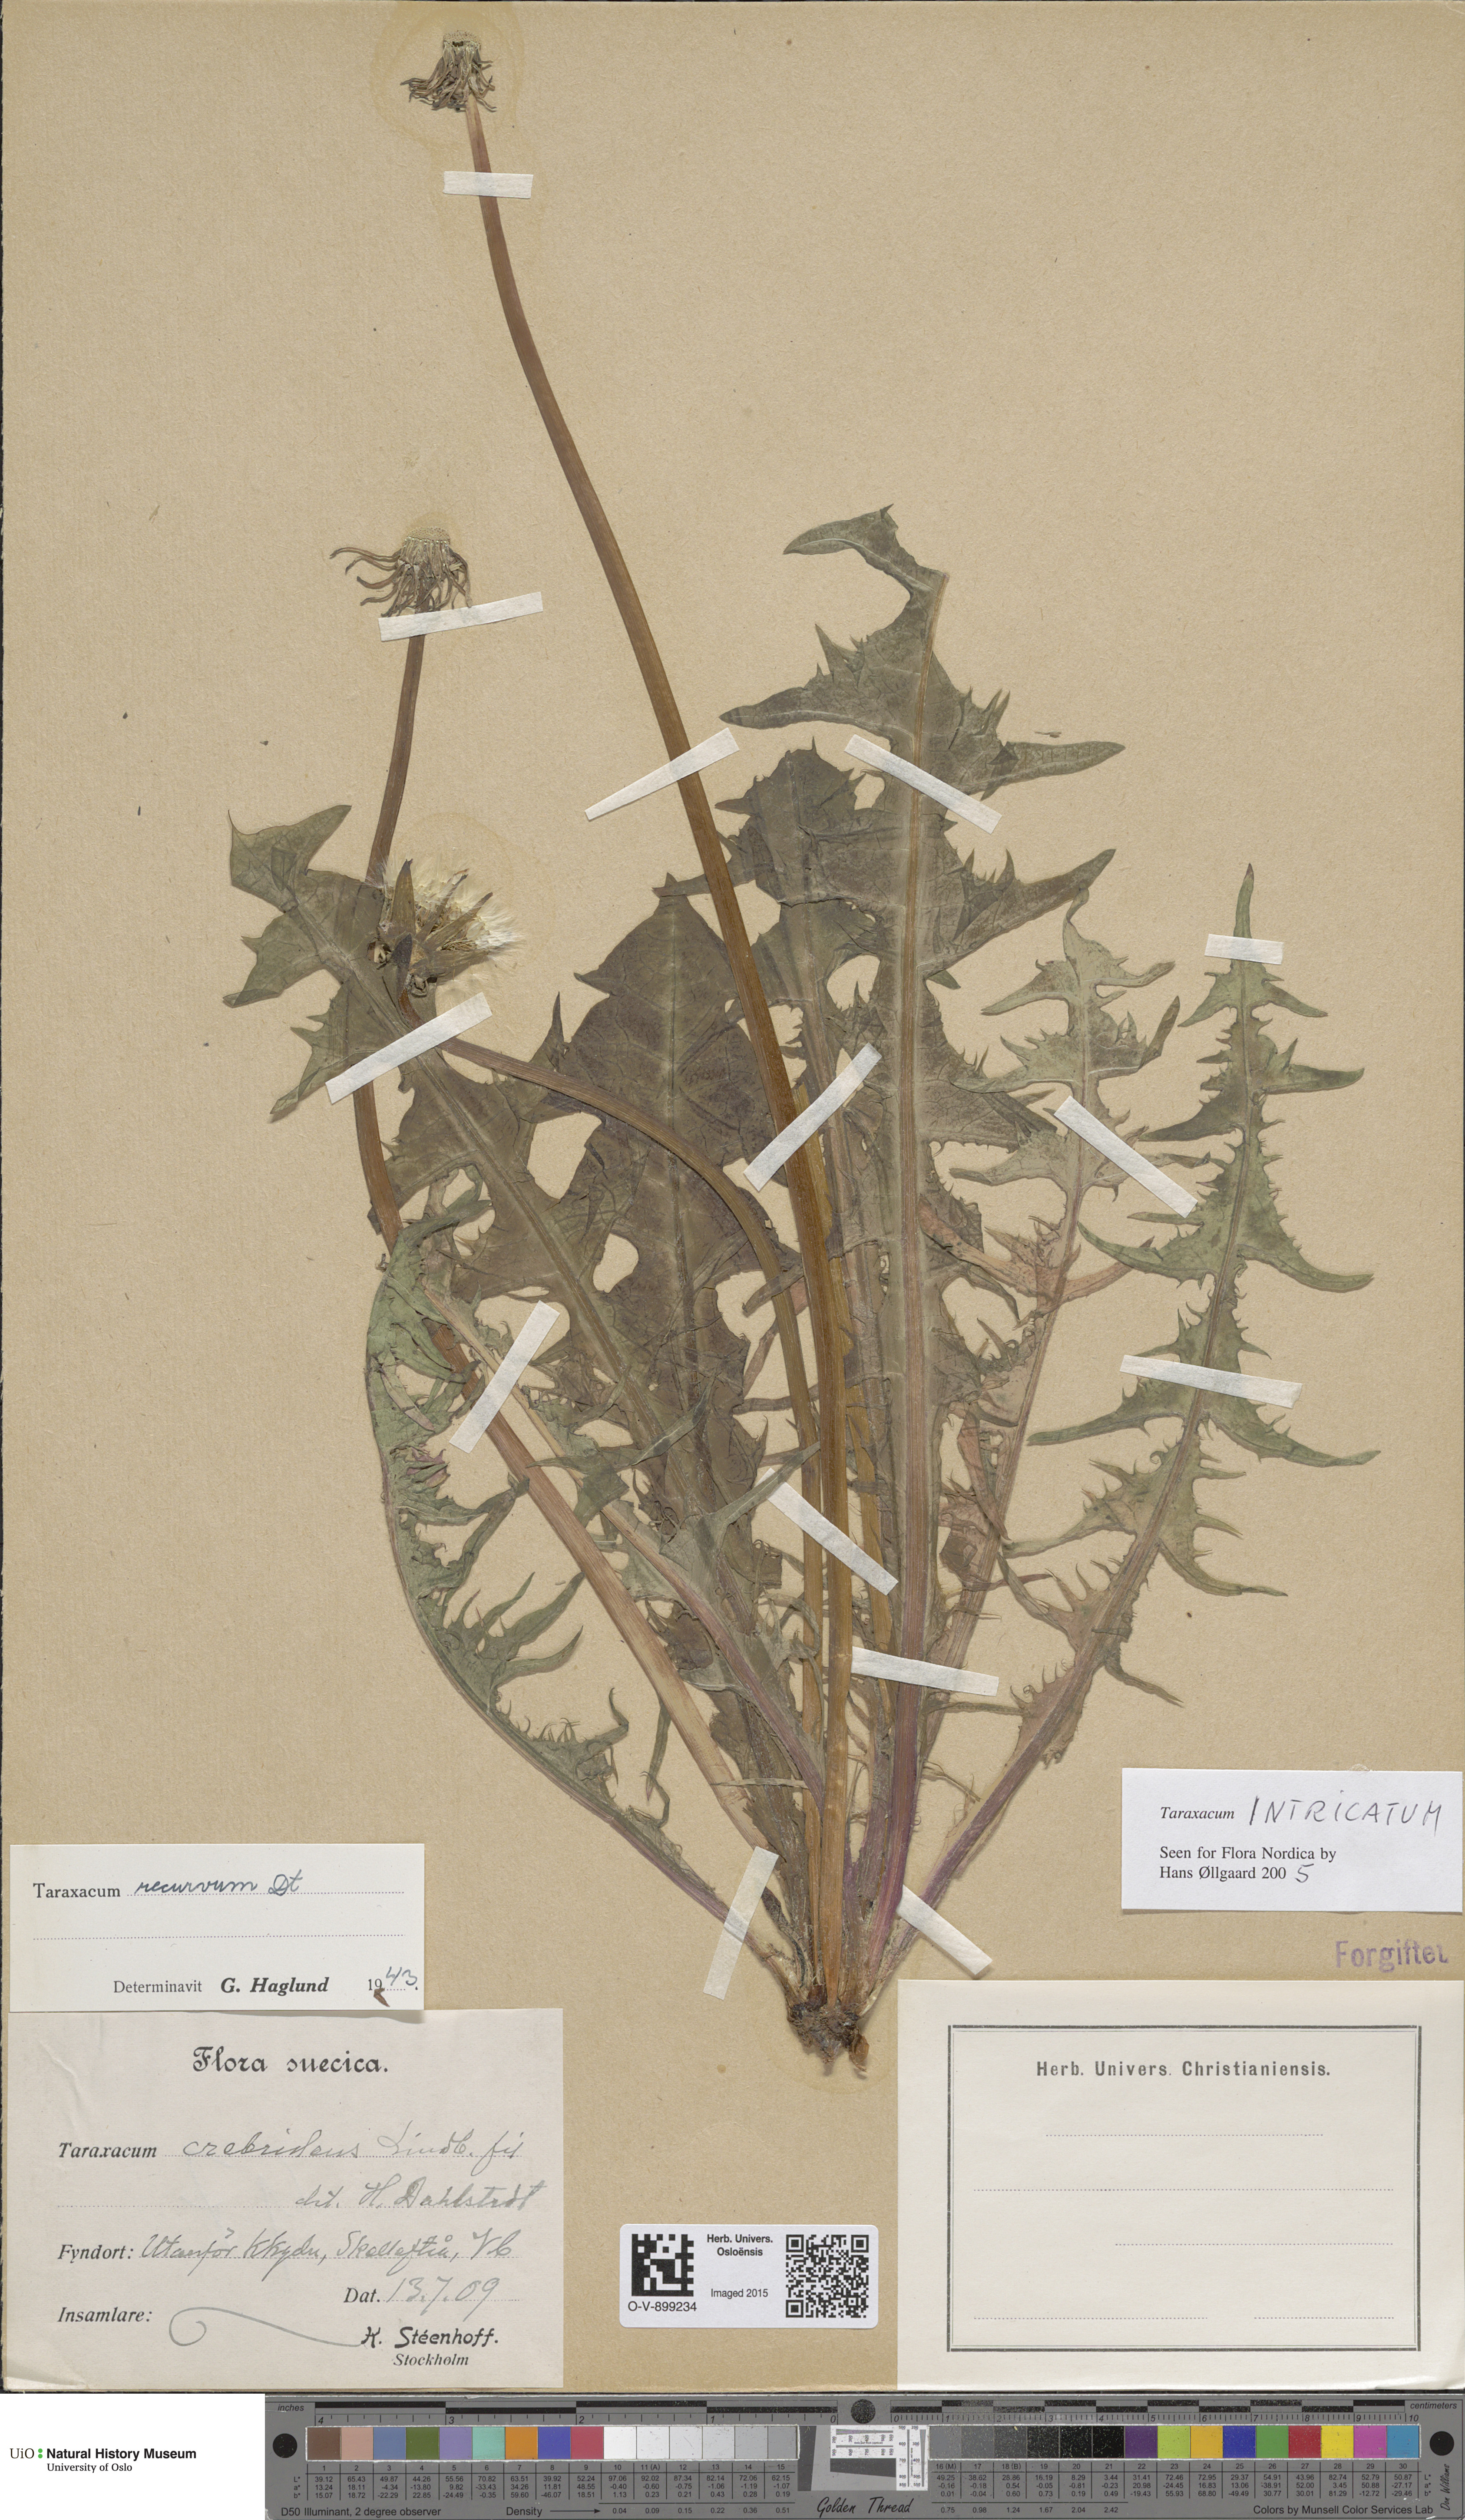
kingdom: Plantae
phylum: Tracheophyta
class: Magnoliopsida
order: Asterales
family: Asteraceae
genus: Taraxacum
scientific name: Taraxacum recurvum
